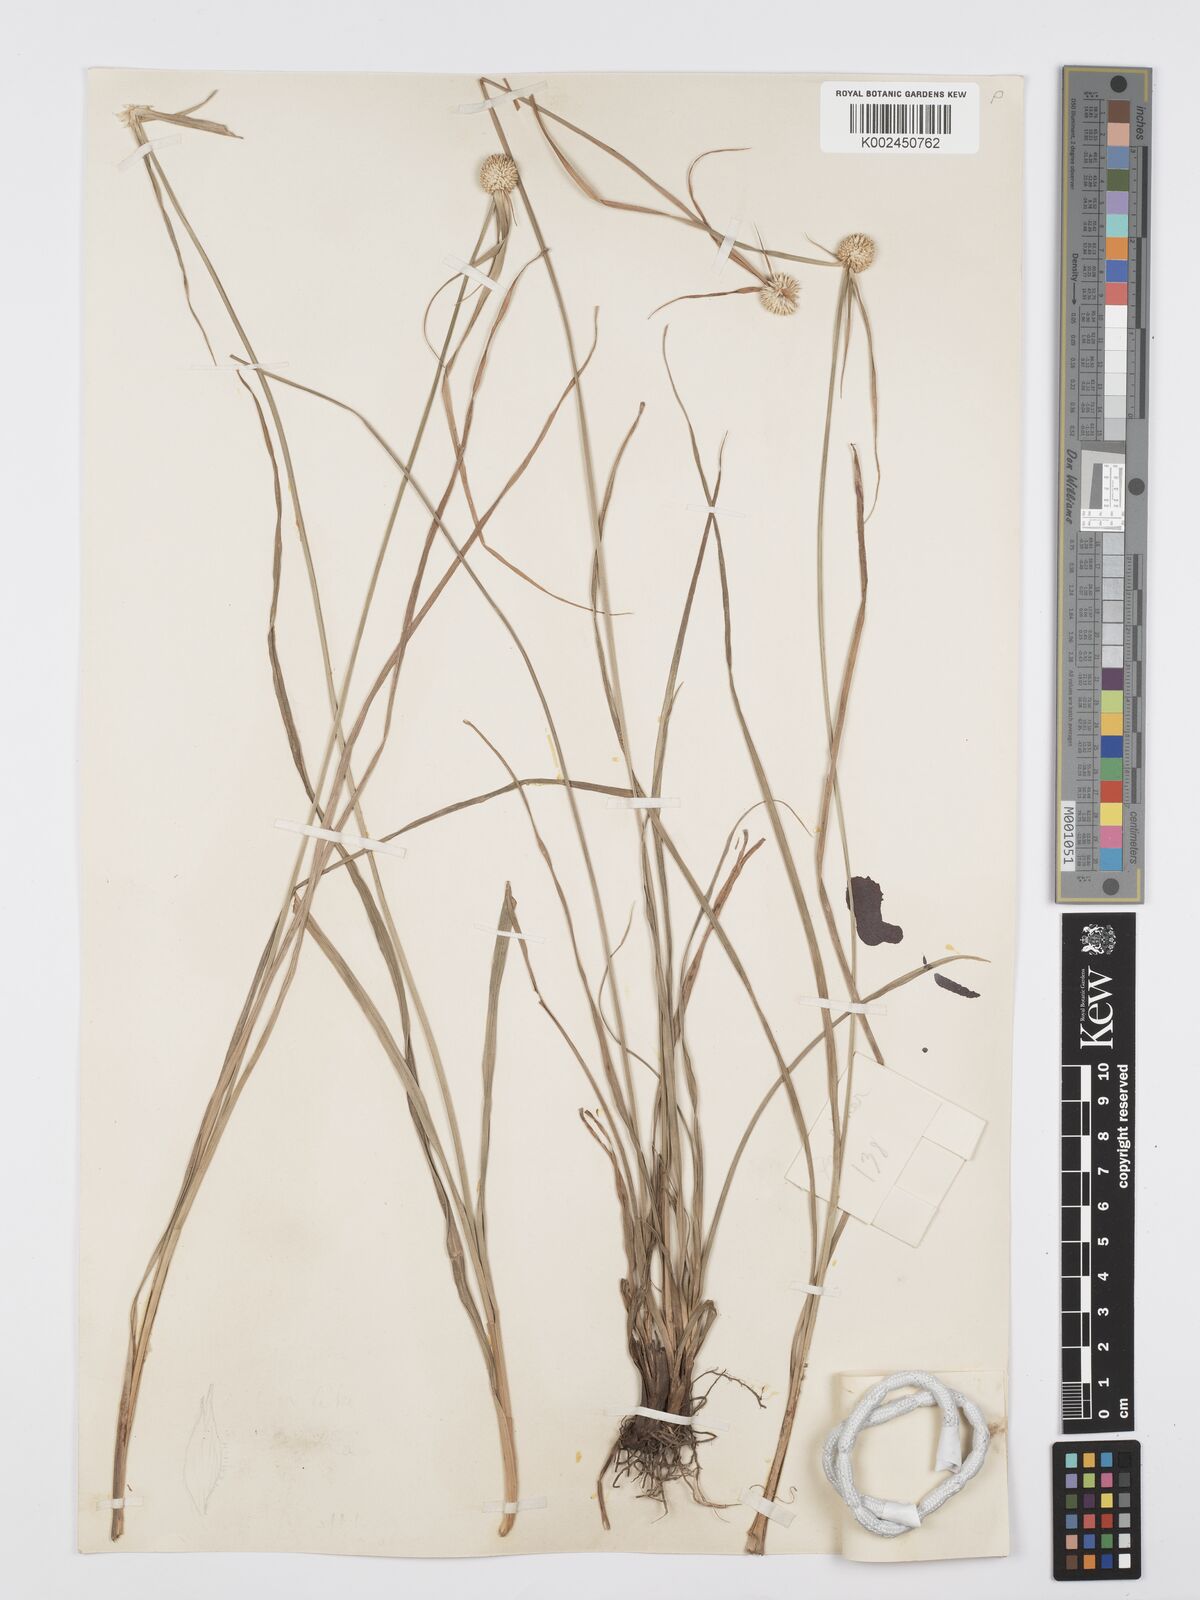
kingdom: Plantae
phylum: Tracheophyta
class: Liliopsida
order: Poales
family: Cyperaceae
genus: Cyperus
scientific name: Cyperus rukwanus
